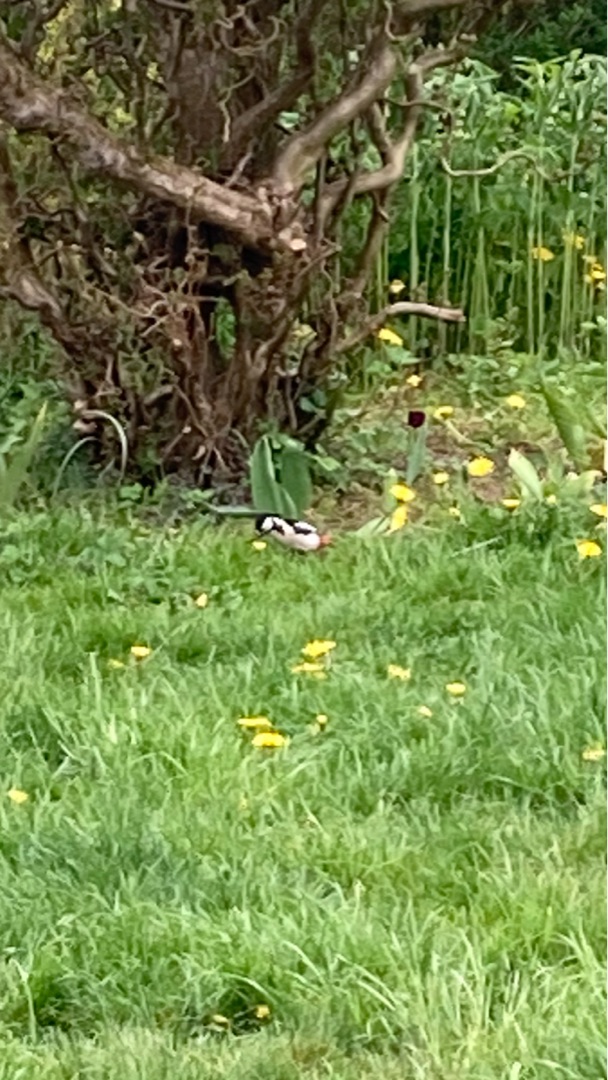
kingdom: Animalia
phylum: Chordata
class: Aves
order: Piciformes
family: Picidae
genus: Dendrocopos
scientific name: Dendrocopos major
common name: Stor flagspætte
